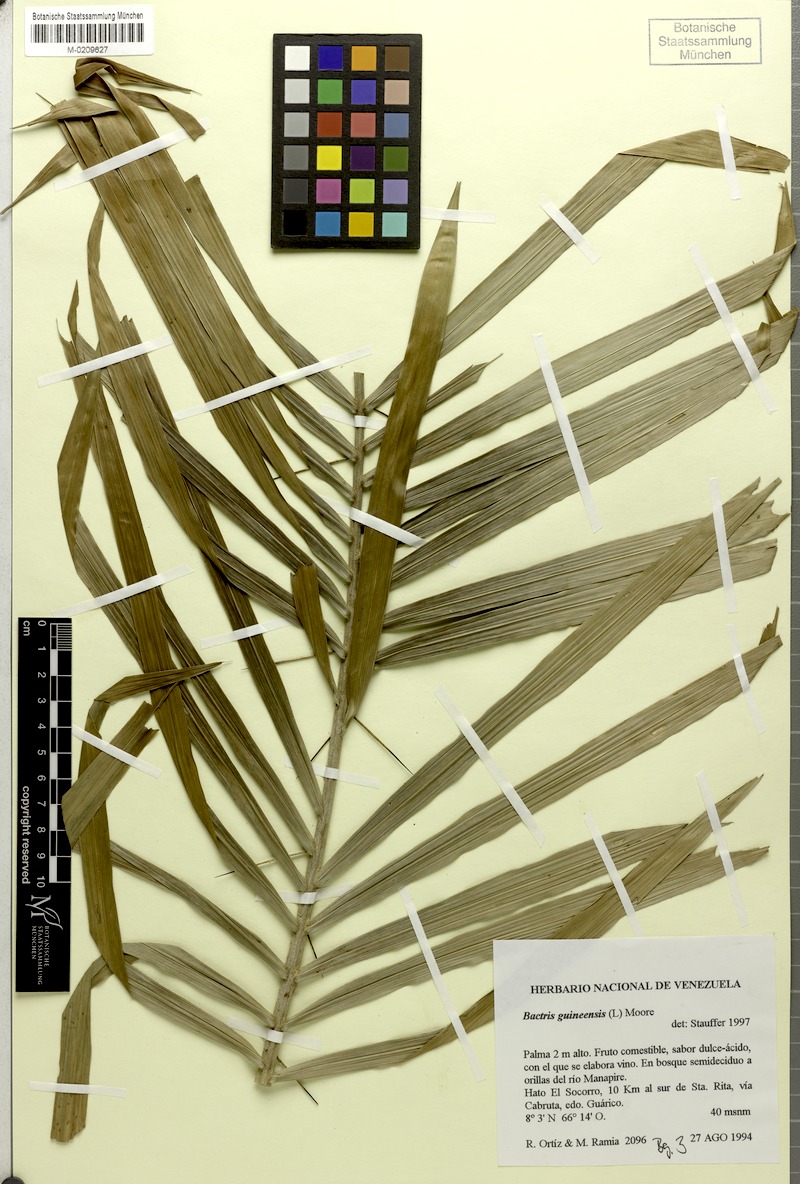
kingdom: Plantae
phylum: Tracheophyta
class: Liliopsida
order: Arecales
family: Arecaceae
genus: Bactris
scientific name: Bactris guineensis
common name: Tobago cane
